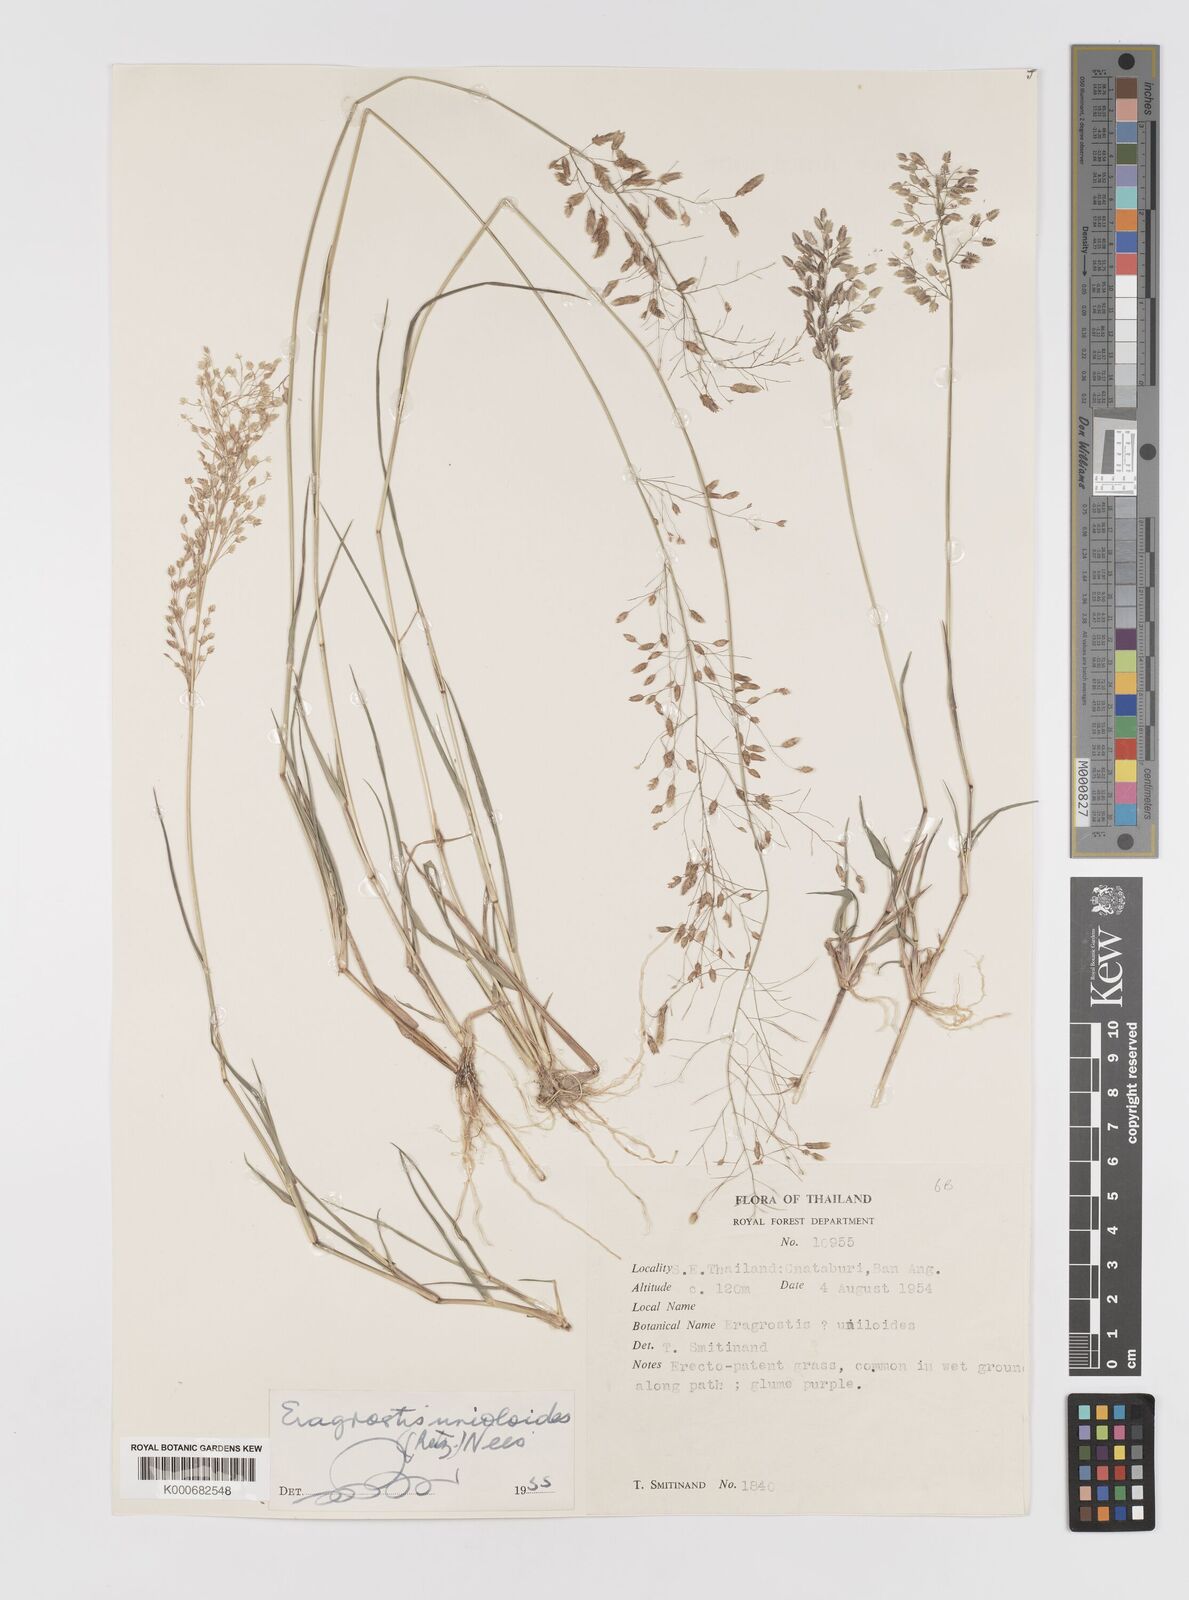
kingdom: Plantae
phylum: Tracheophyta
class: Liliopsida
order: Poales
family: Poaceae
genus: Eragrostis
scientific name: Eragrostis unioloides
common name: Chinese lovegrass
